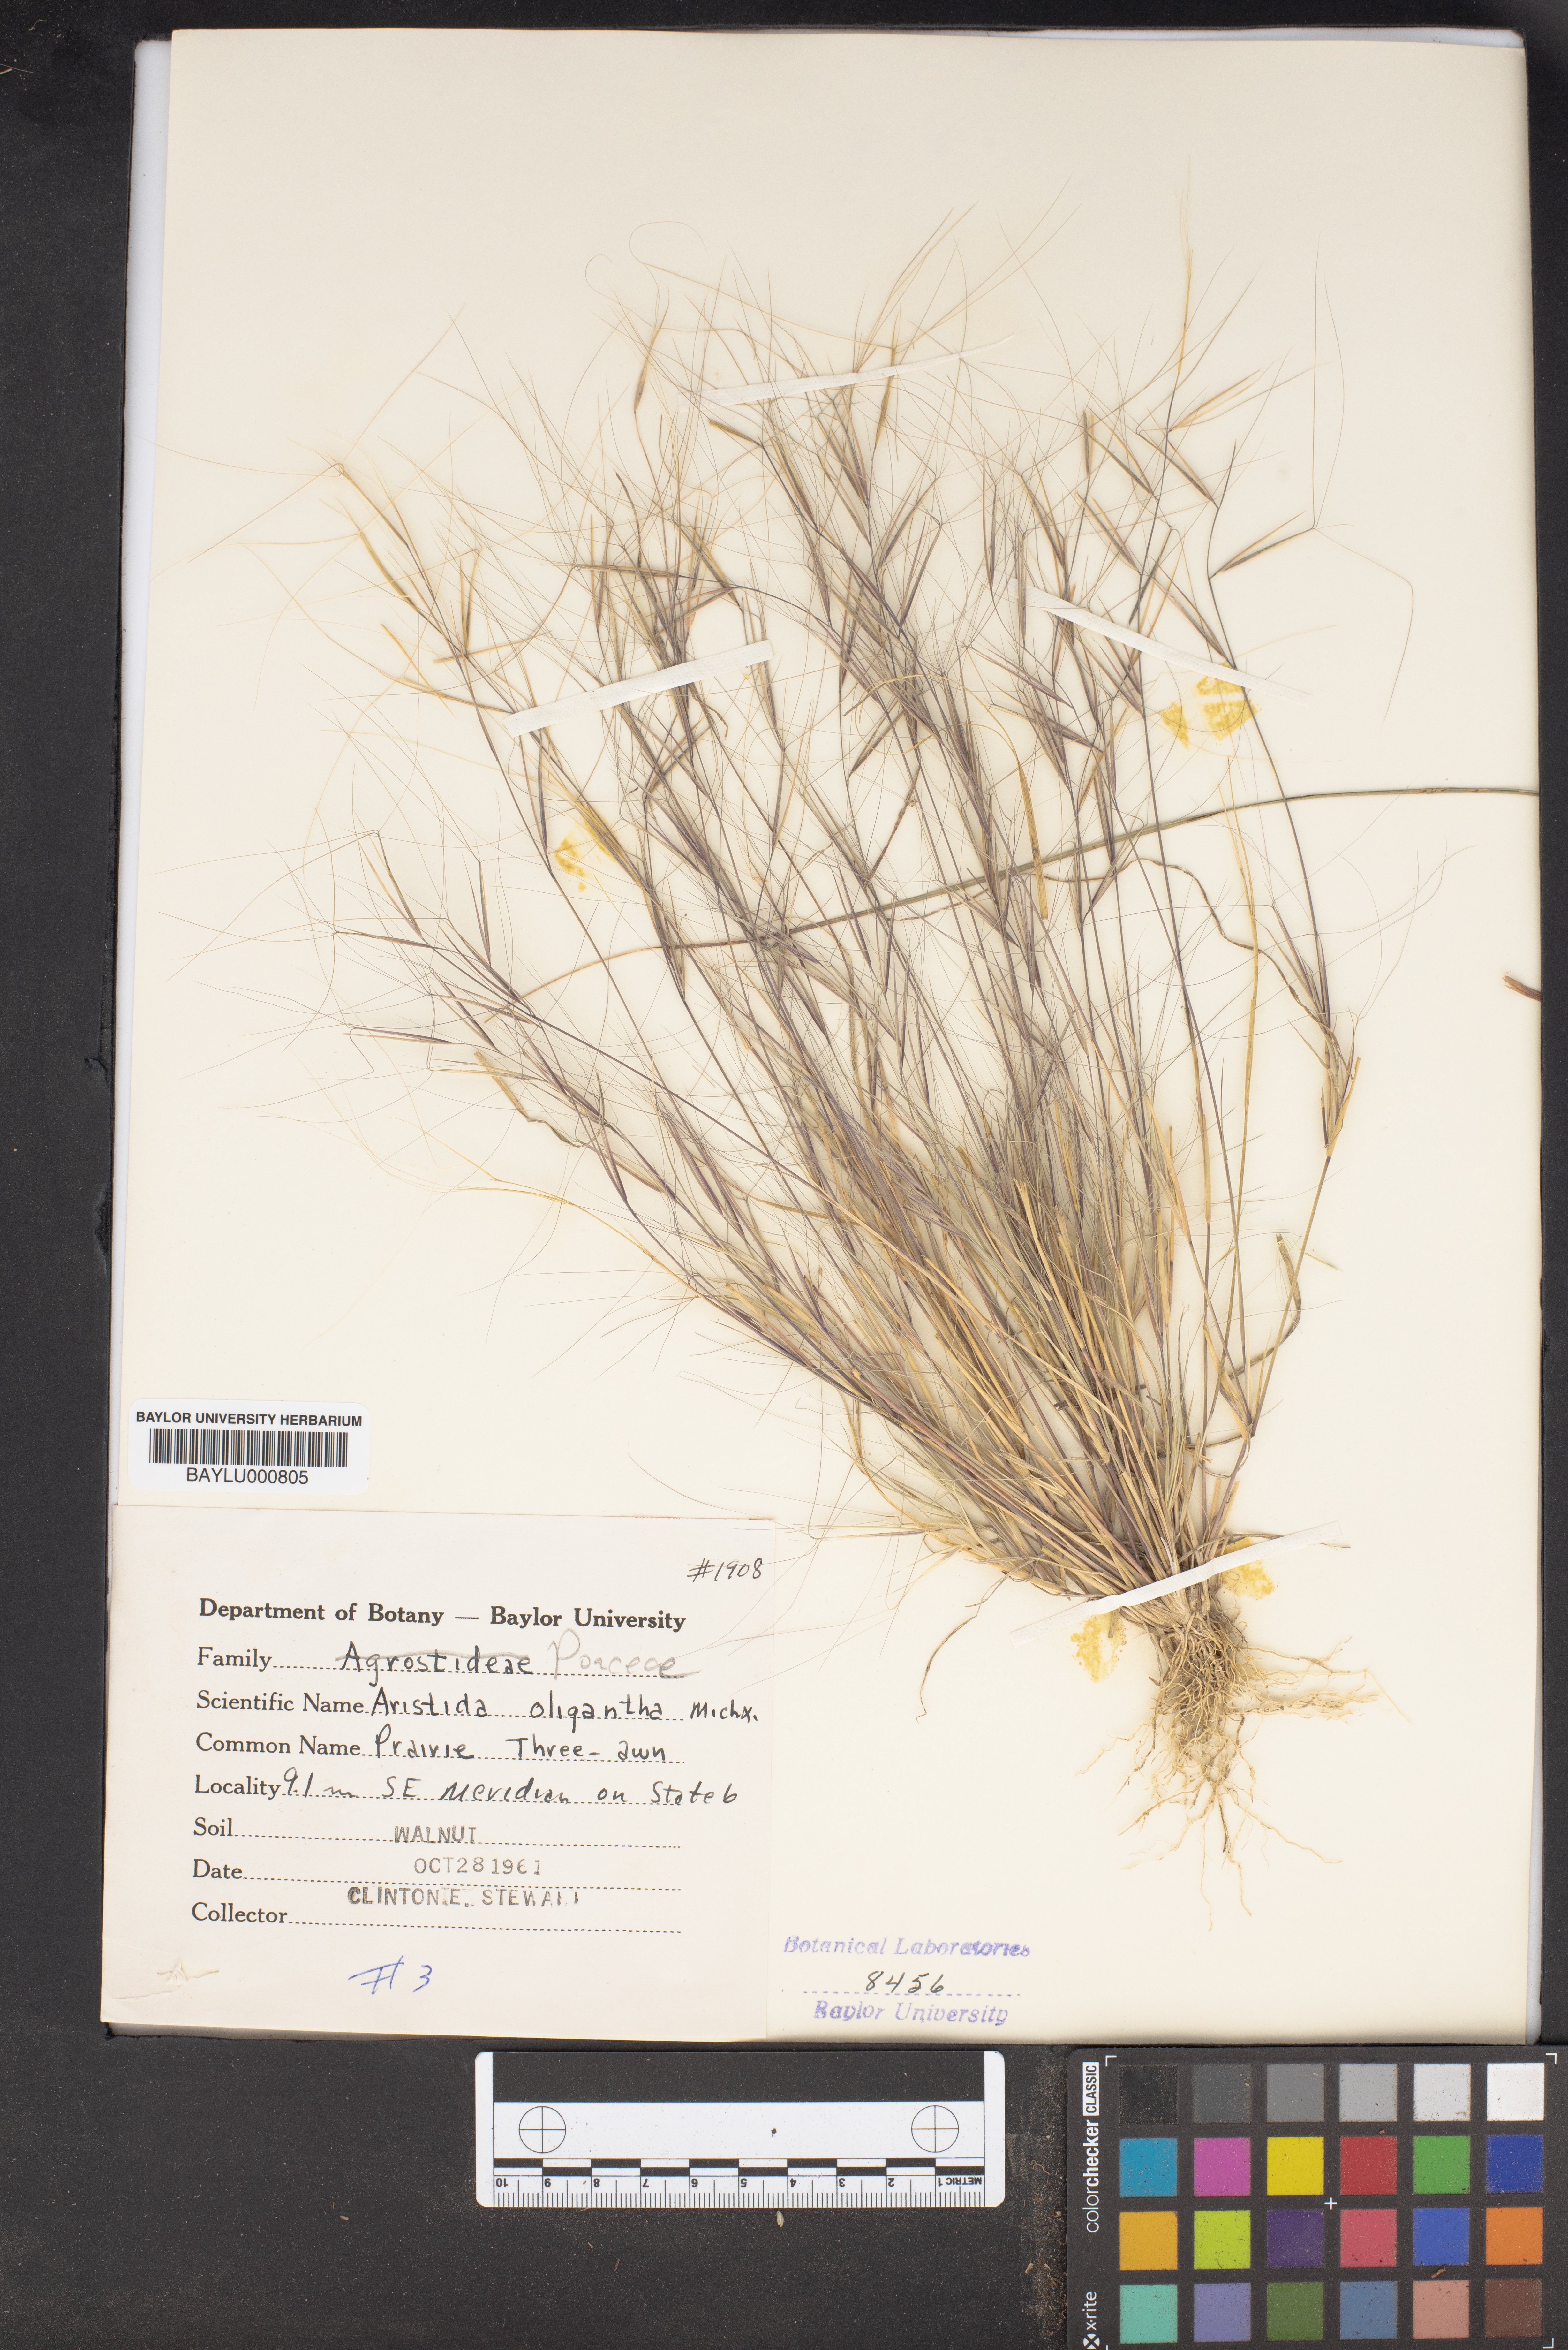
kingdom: Plantae
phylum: Tracheophyta
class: Liliopsida
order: Poales
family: Poaceae
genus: Aristida
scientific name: Aristida oligantha
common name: Few-flowered aristida
